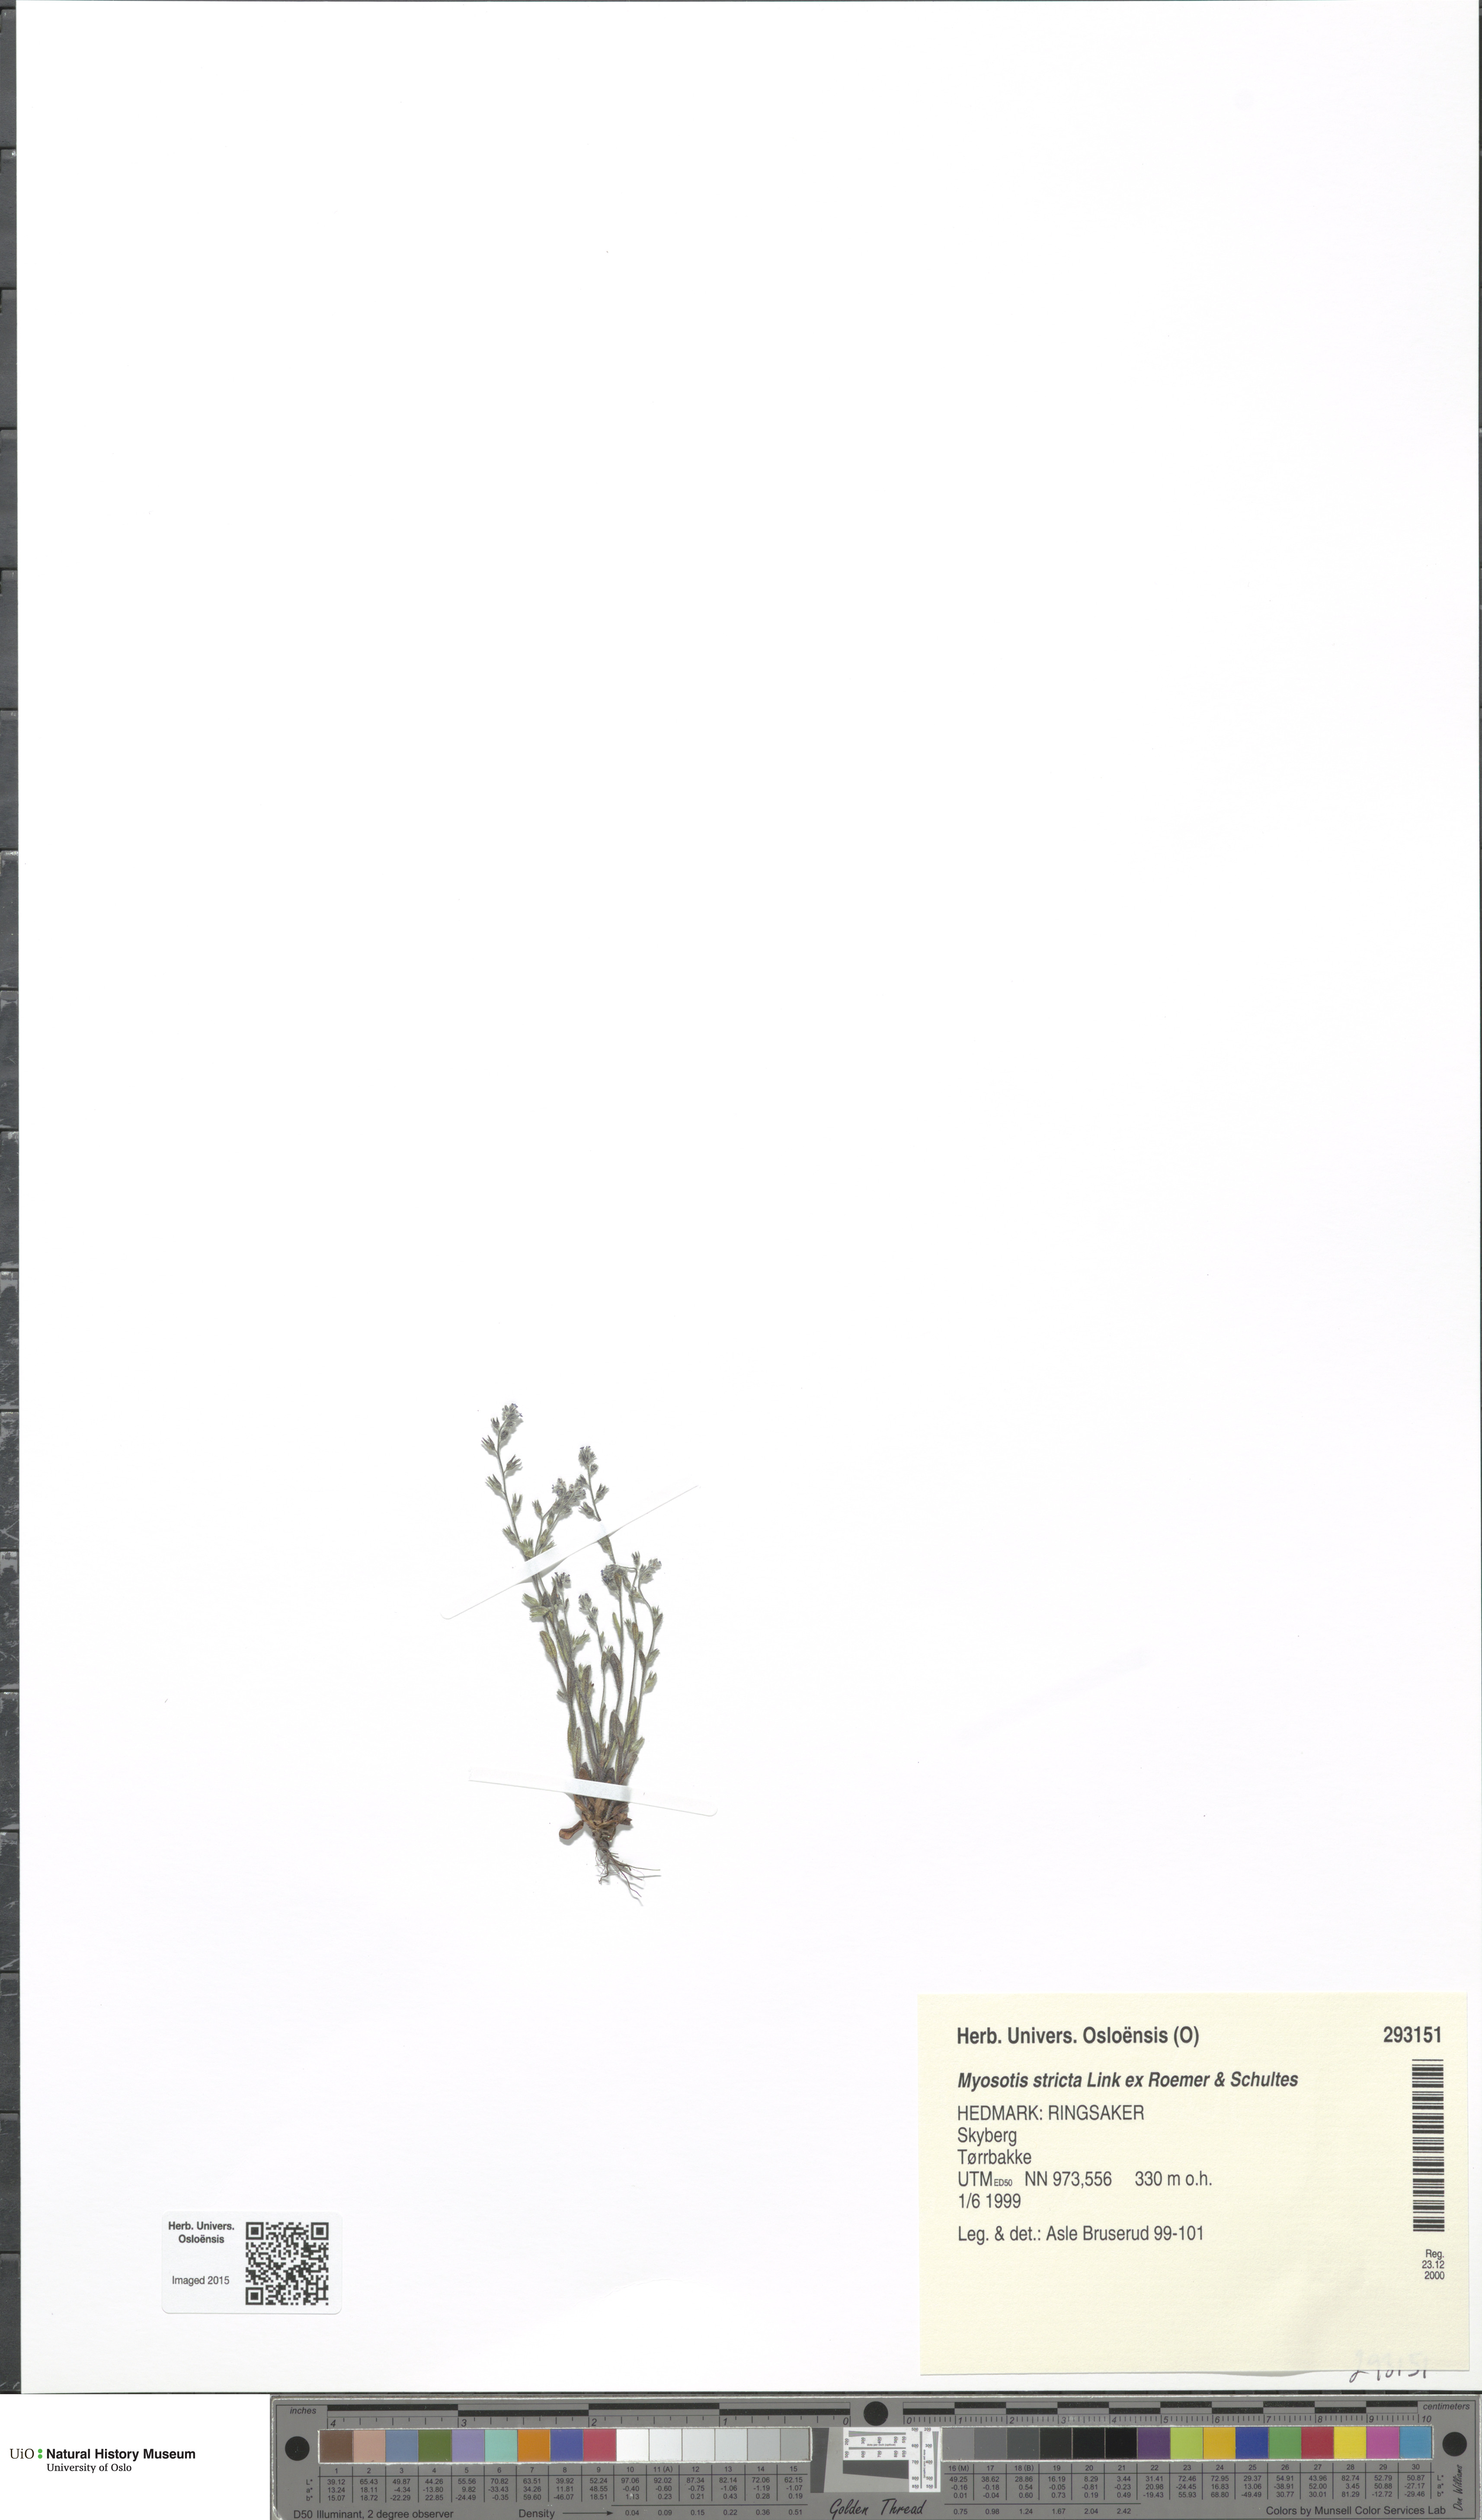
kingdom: Plantae
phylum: Tracheophyta
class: Magnoliopsida
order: Boraginales
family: Boraginaceae
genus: Myosotis
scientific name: Myosotis stricta
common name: Strict forget-me-not
